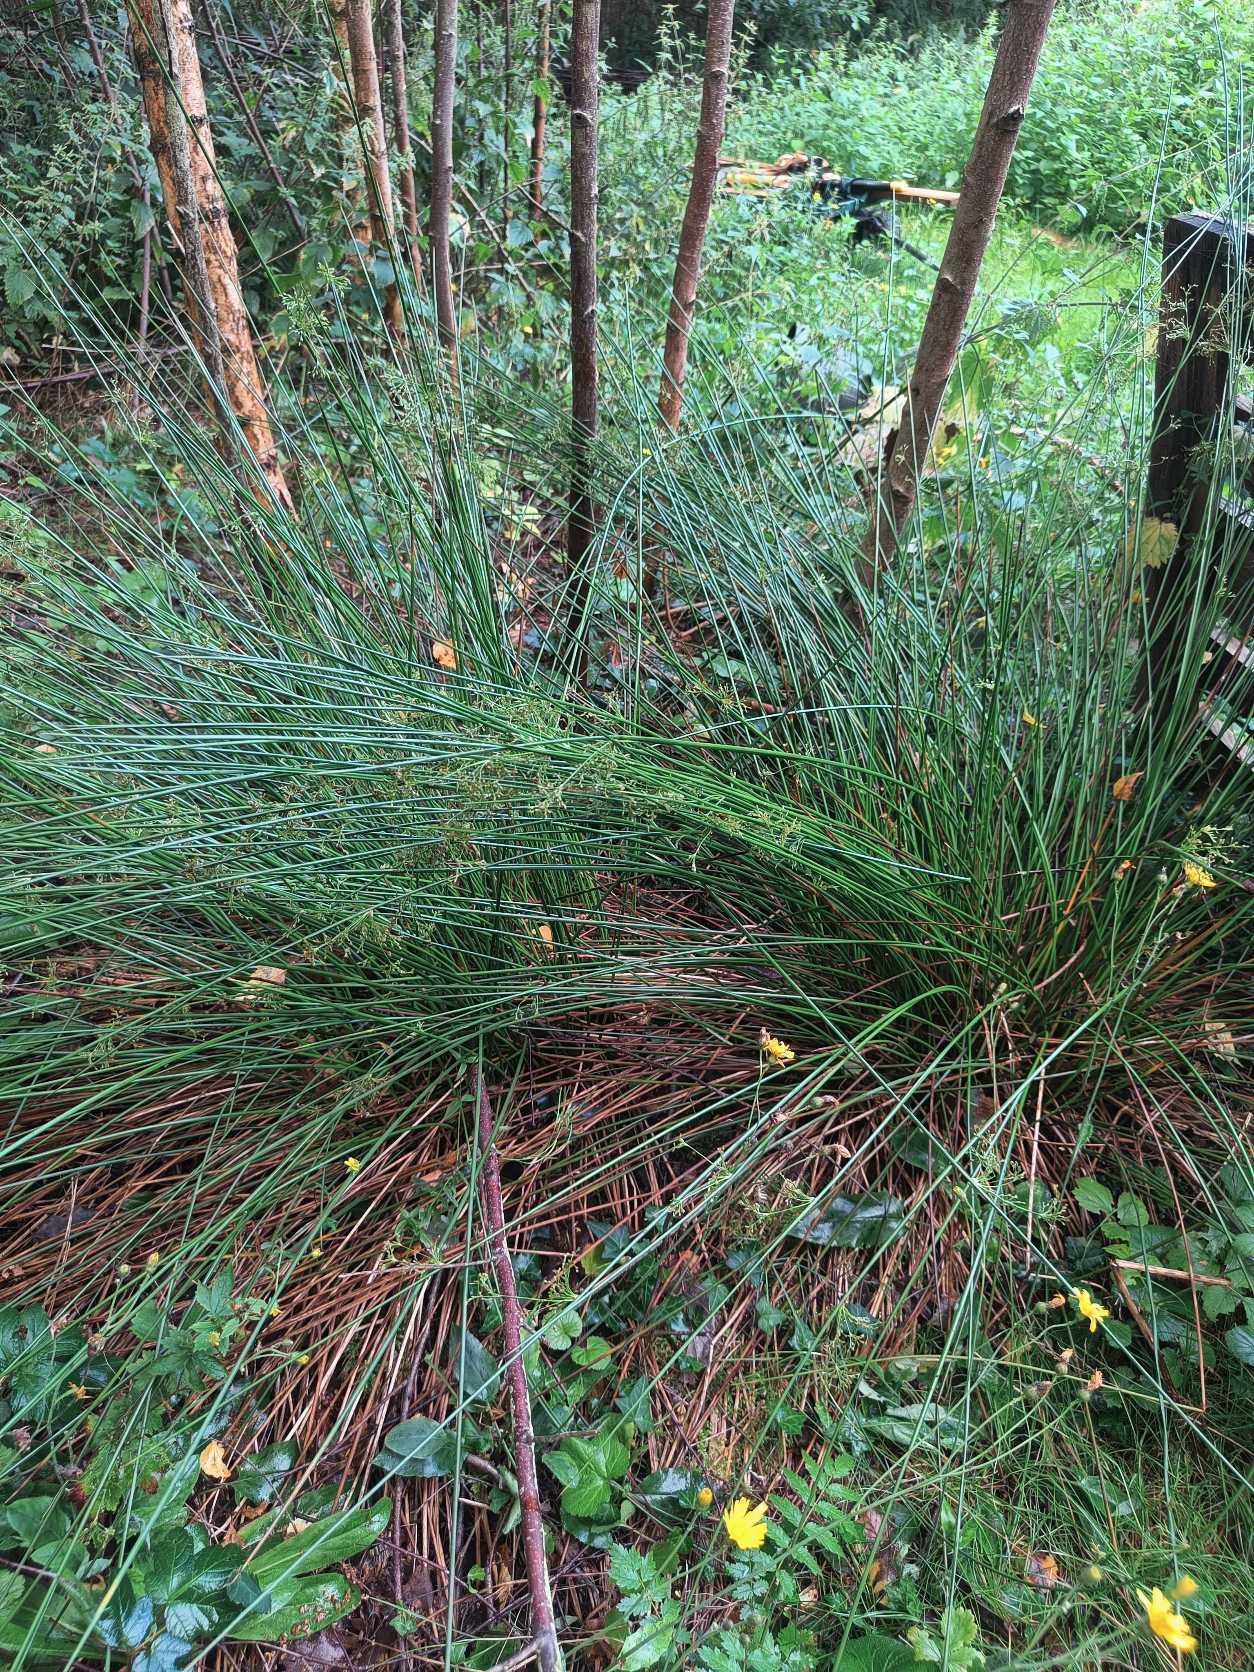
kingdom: Plantae
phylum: Tracheophyta
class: Liliopsida
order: Poales
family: Juncaceae
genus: Juncus
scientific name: Juncus effusus
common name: Lyse-siv
